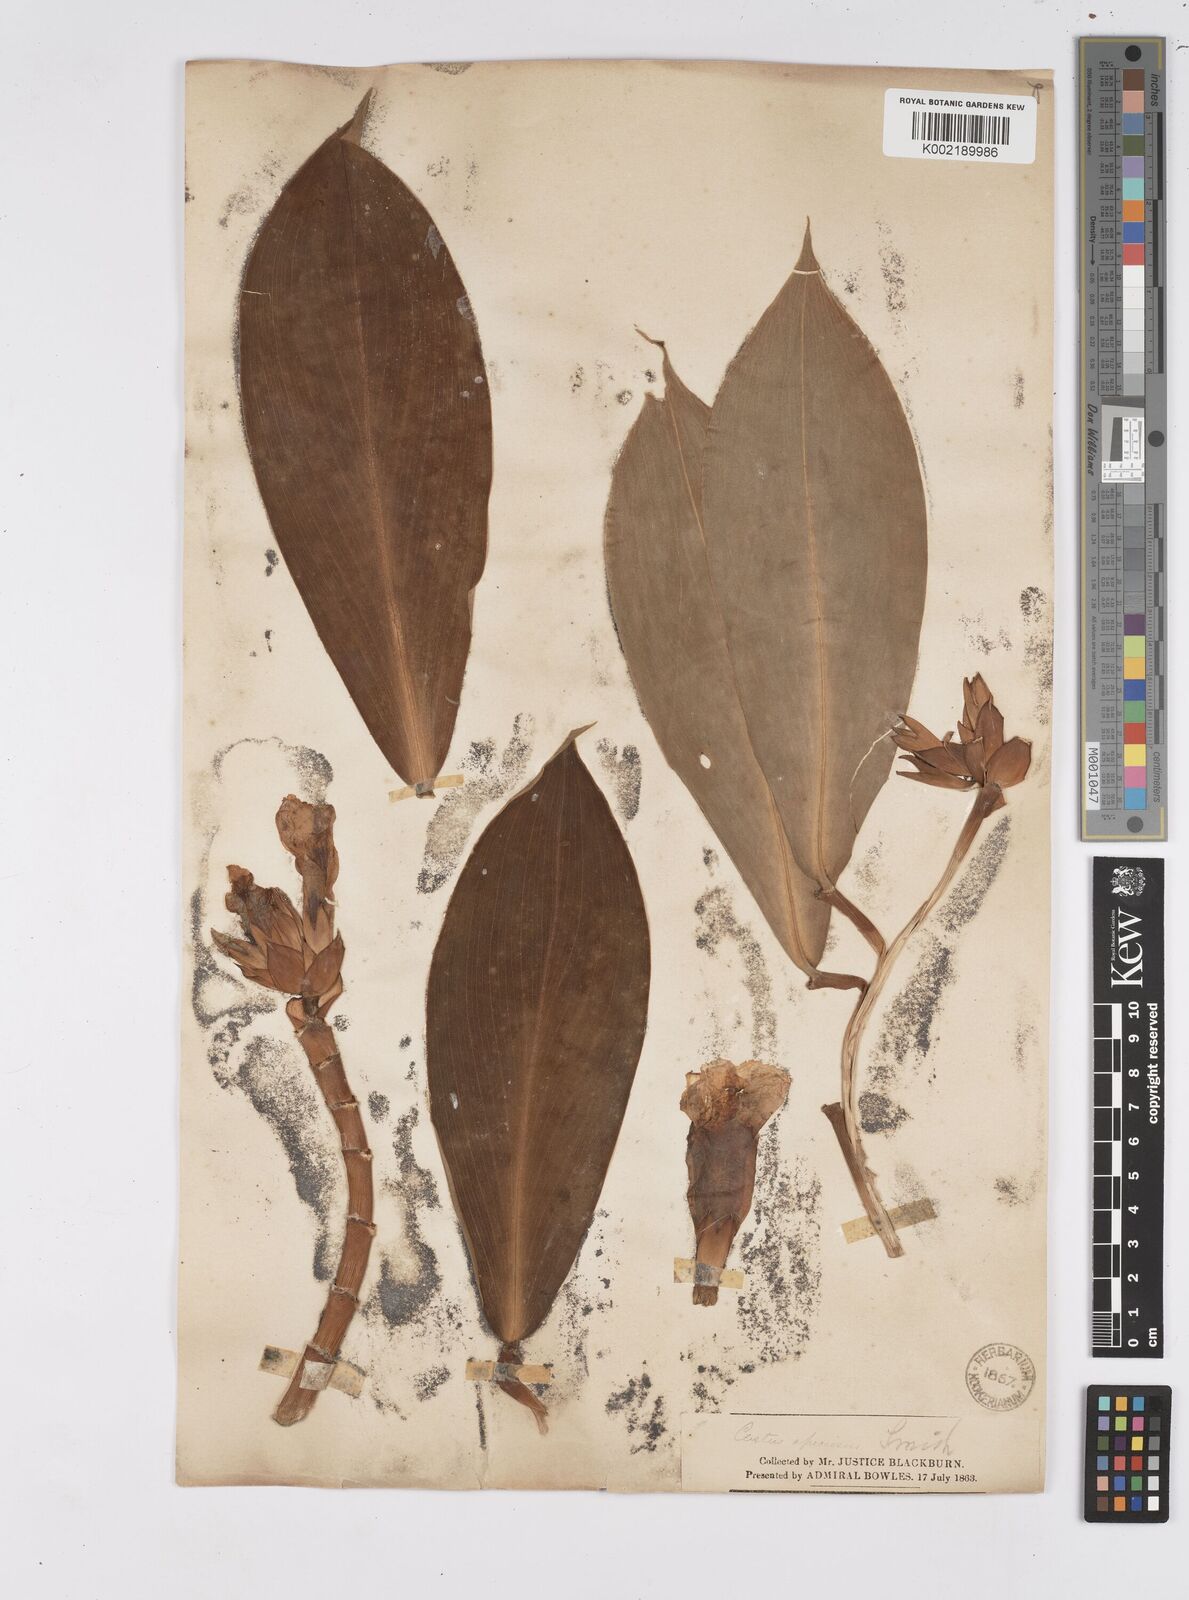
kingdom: Plantae
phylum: Tracheophyta
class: Liliopsida
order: Zingiberales
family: Costaceae
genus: Hellenia
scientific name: Hellenia speciosa
